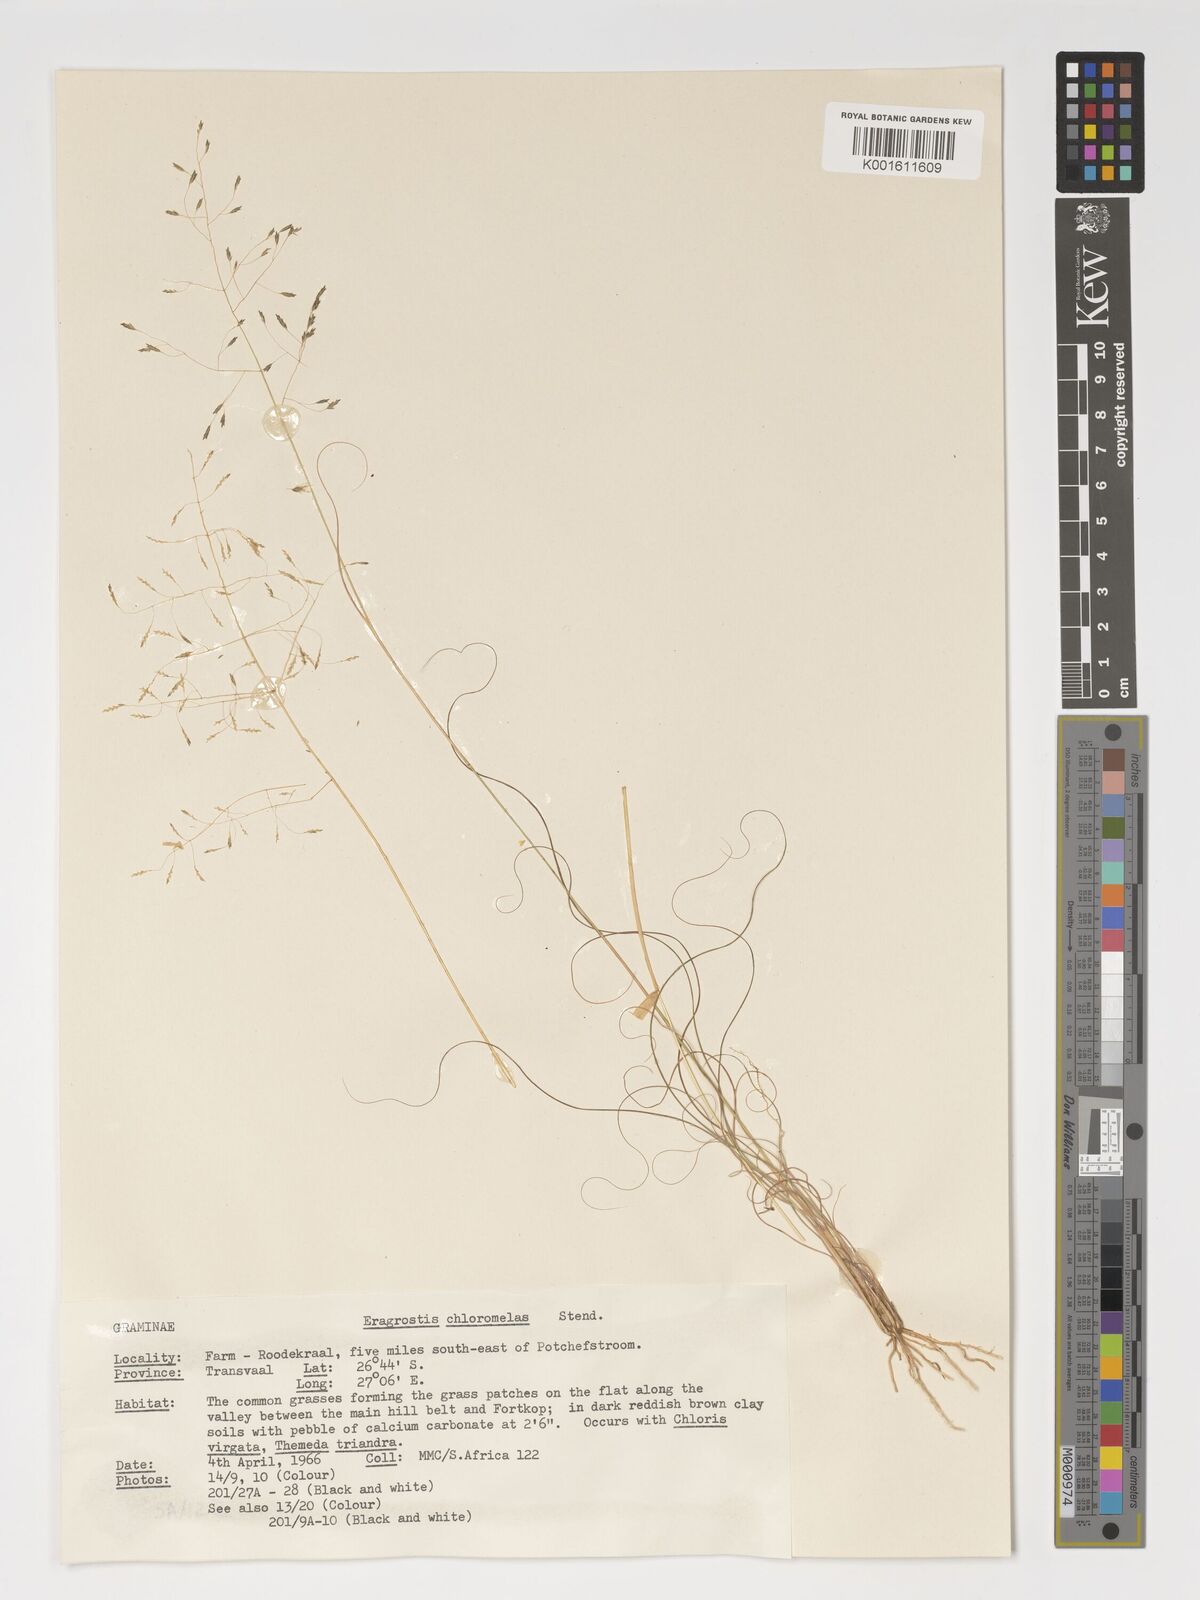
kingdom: Plantae
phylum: Tracheophyta
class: Liliopsida
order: Poales
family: Poaceae
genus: Eragrostis
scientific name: Eragrostis curvula
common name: African love-grass
